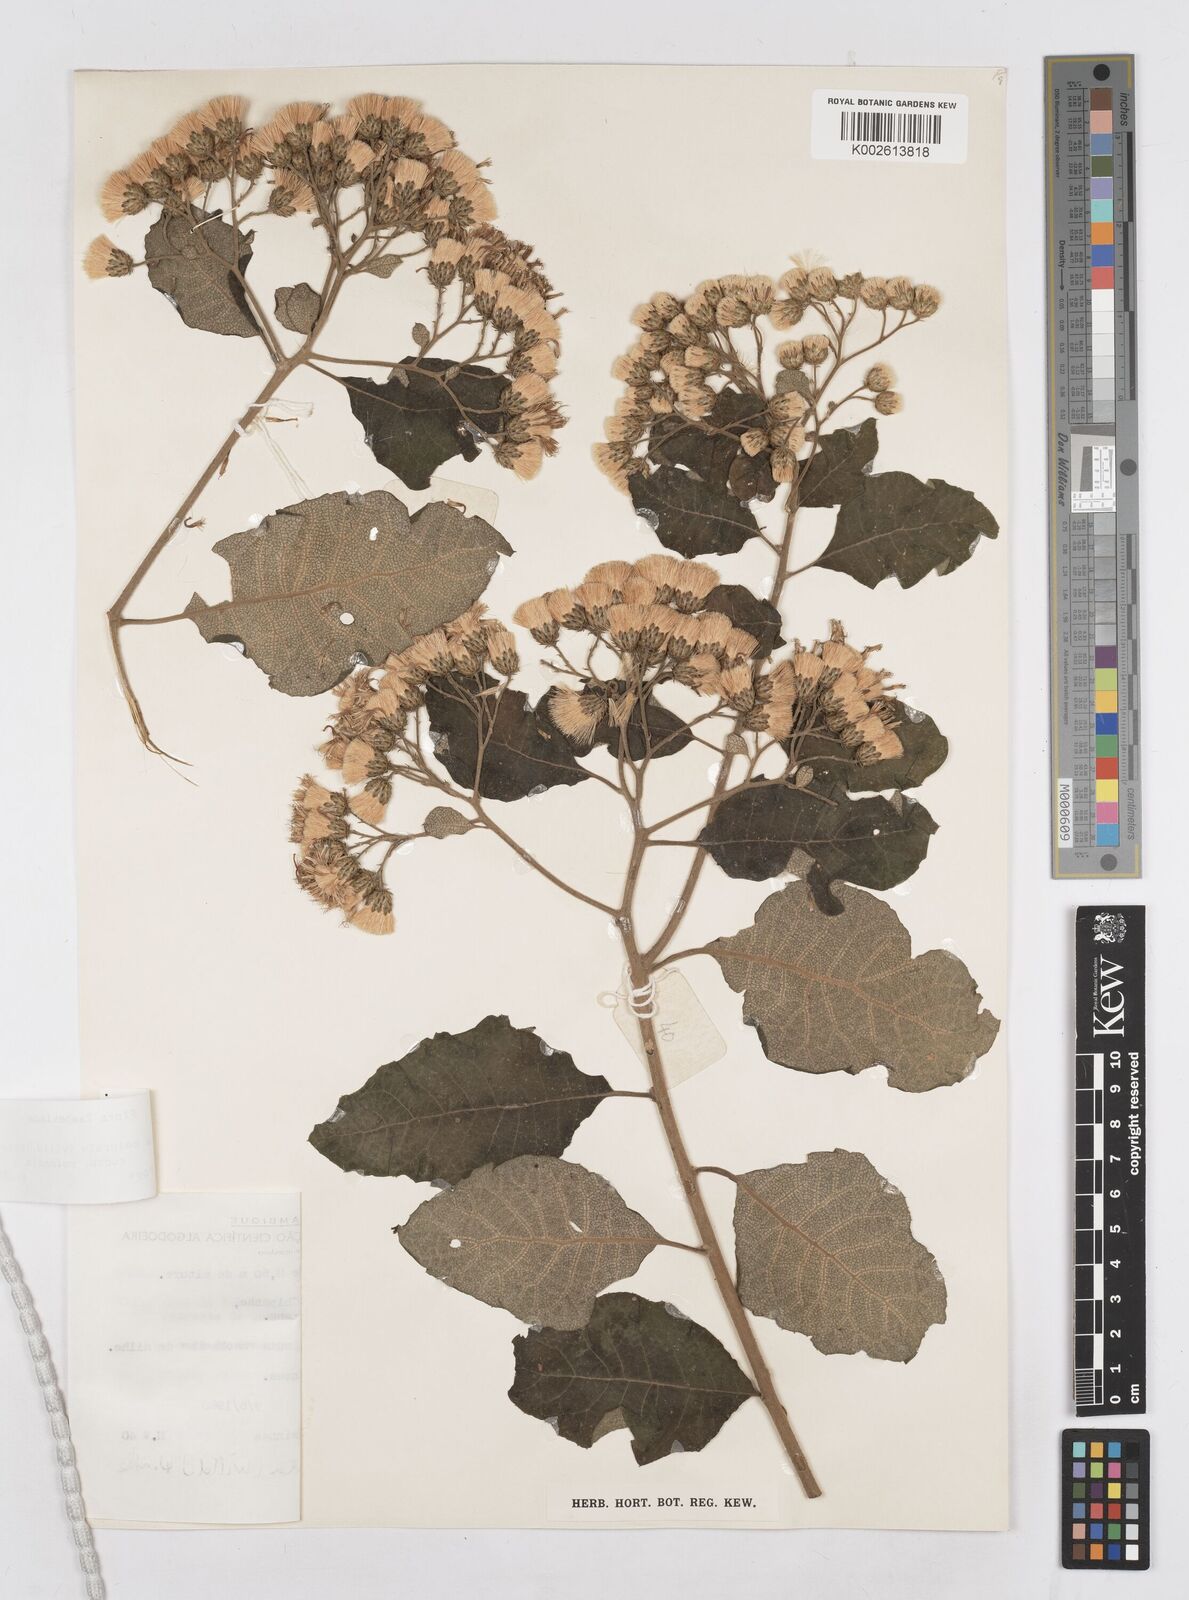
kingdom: Plantae
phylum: Tracheophyta
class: Magnoliopsida
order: Asterales
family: Asteraceae
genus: Vernonia
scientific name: Vernonia colorata
